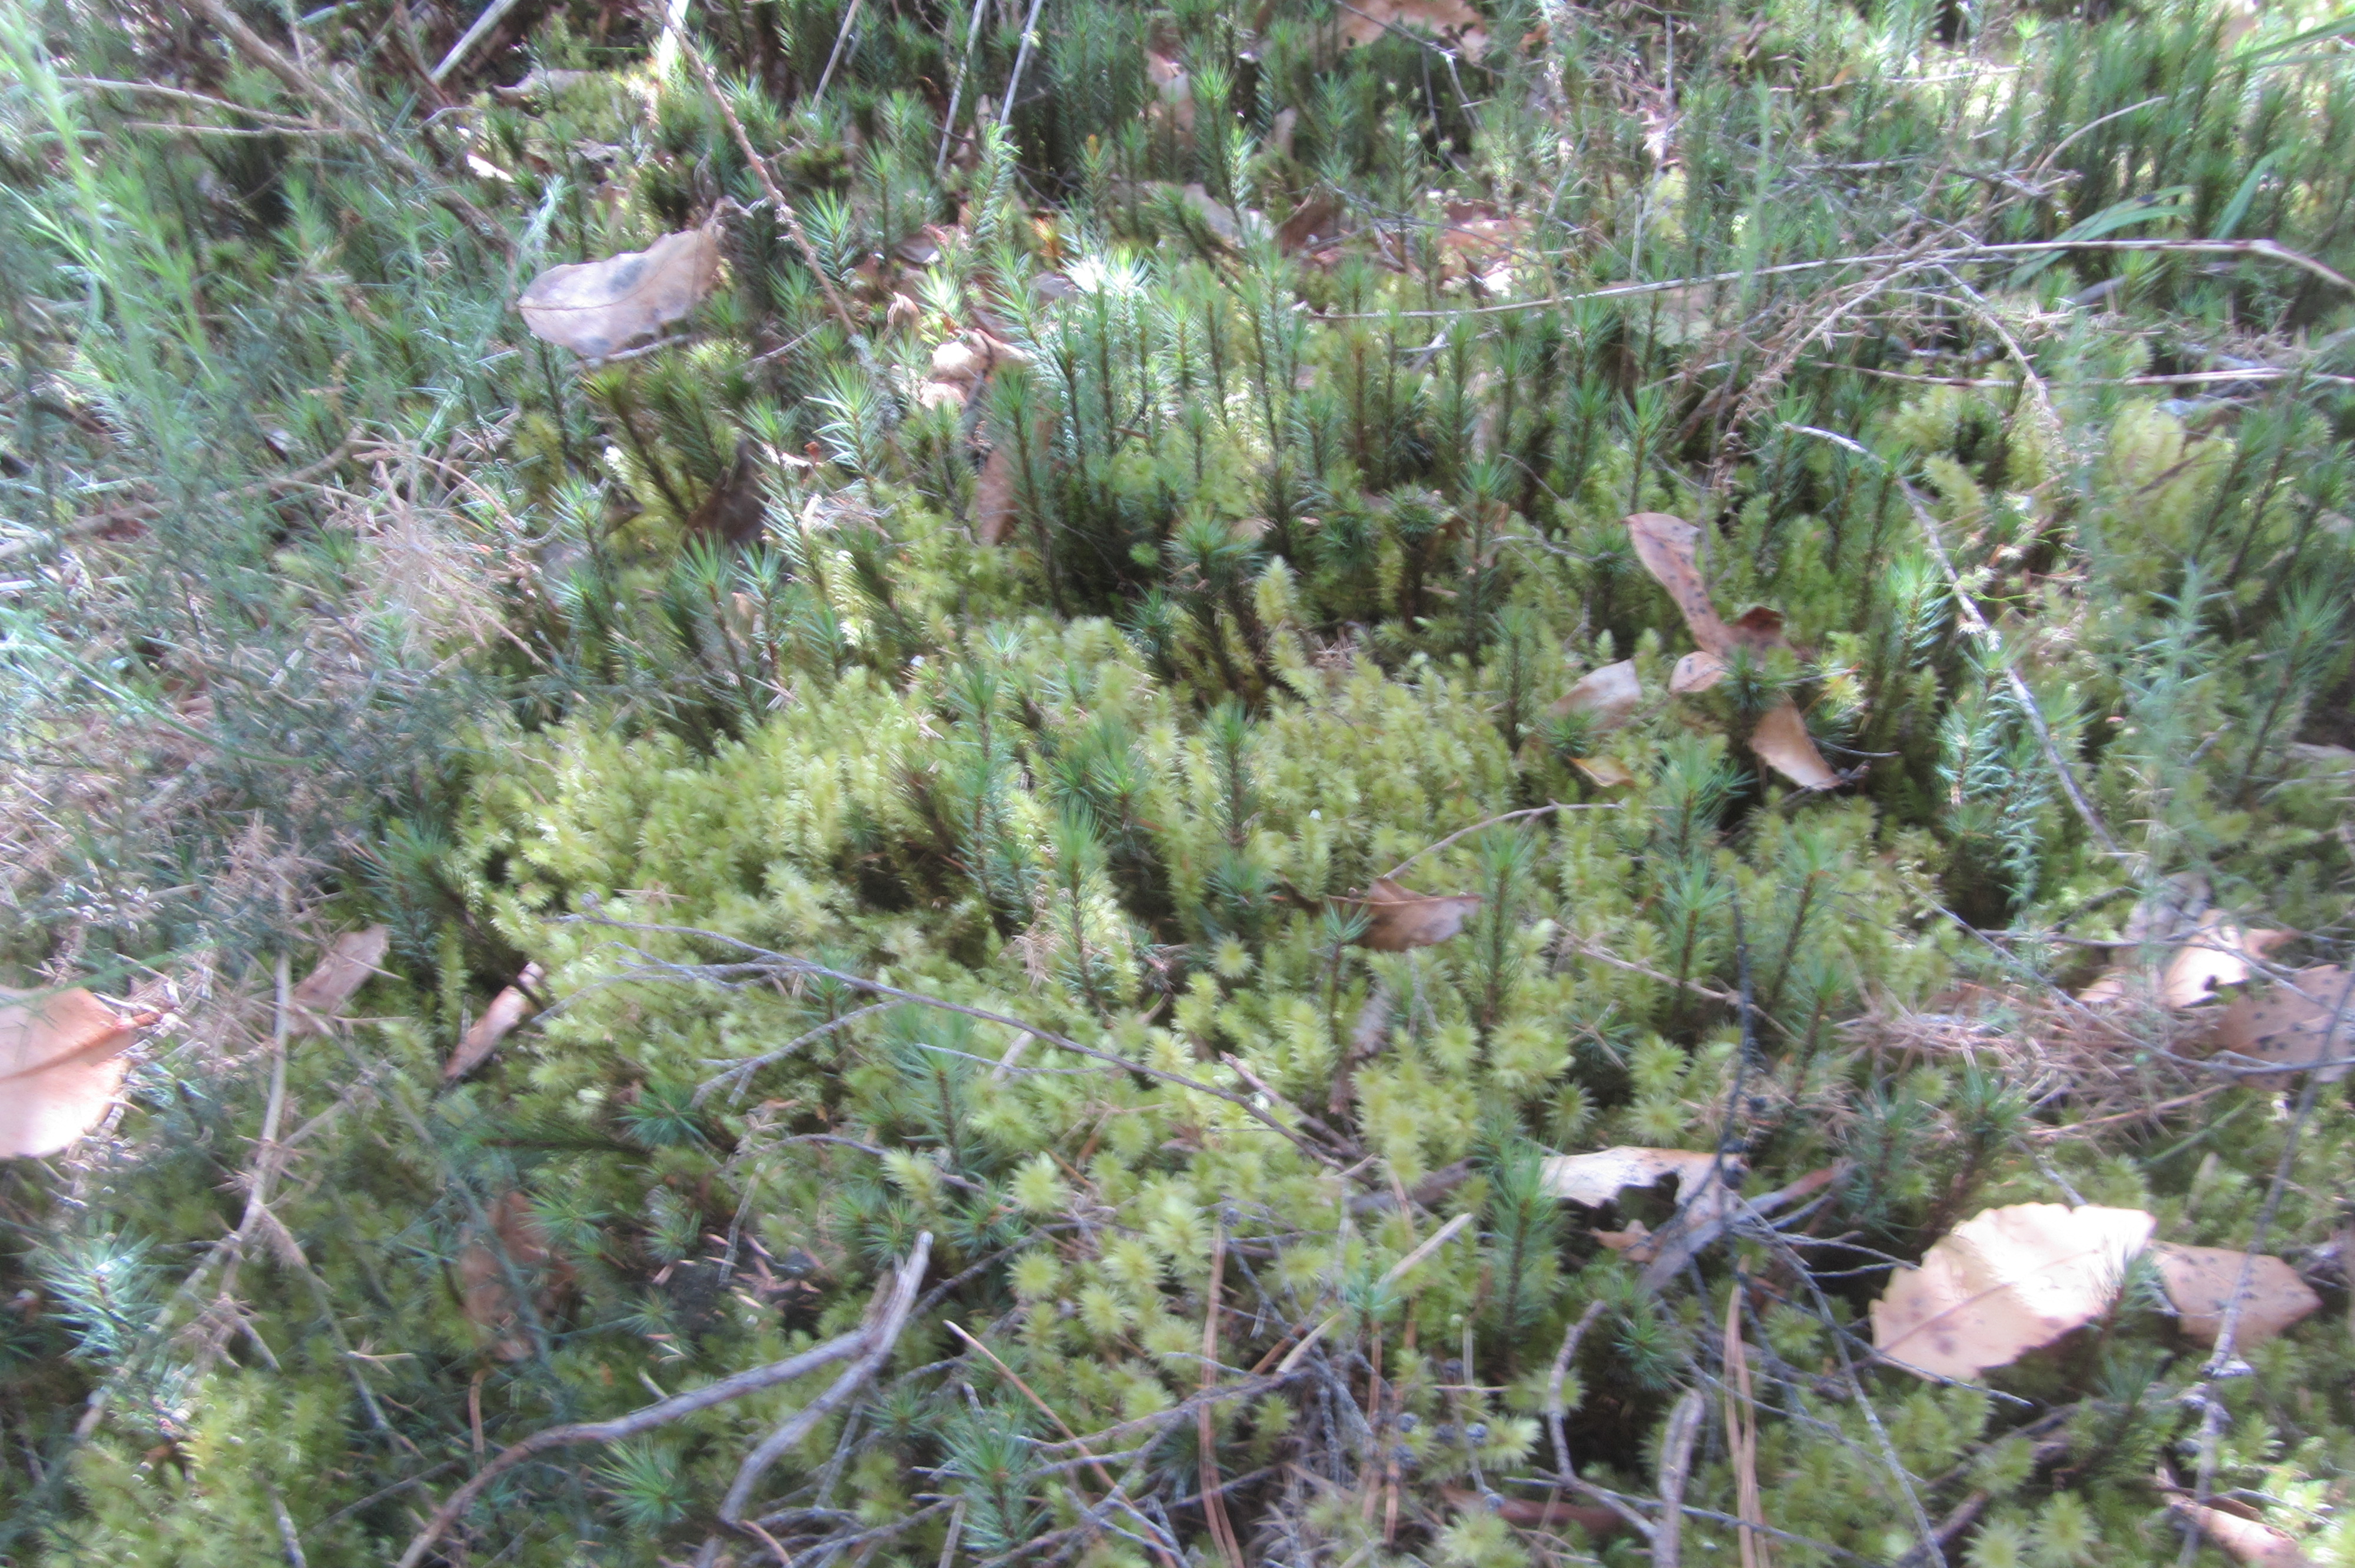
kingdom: Plantae
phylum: Bryophyta
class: Bryopsida
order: Bryales
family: Pulchrinodaceae
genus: Pulchrinodus
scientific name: Pulchrinodus inflatus
